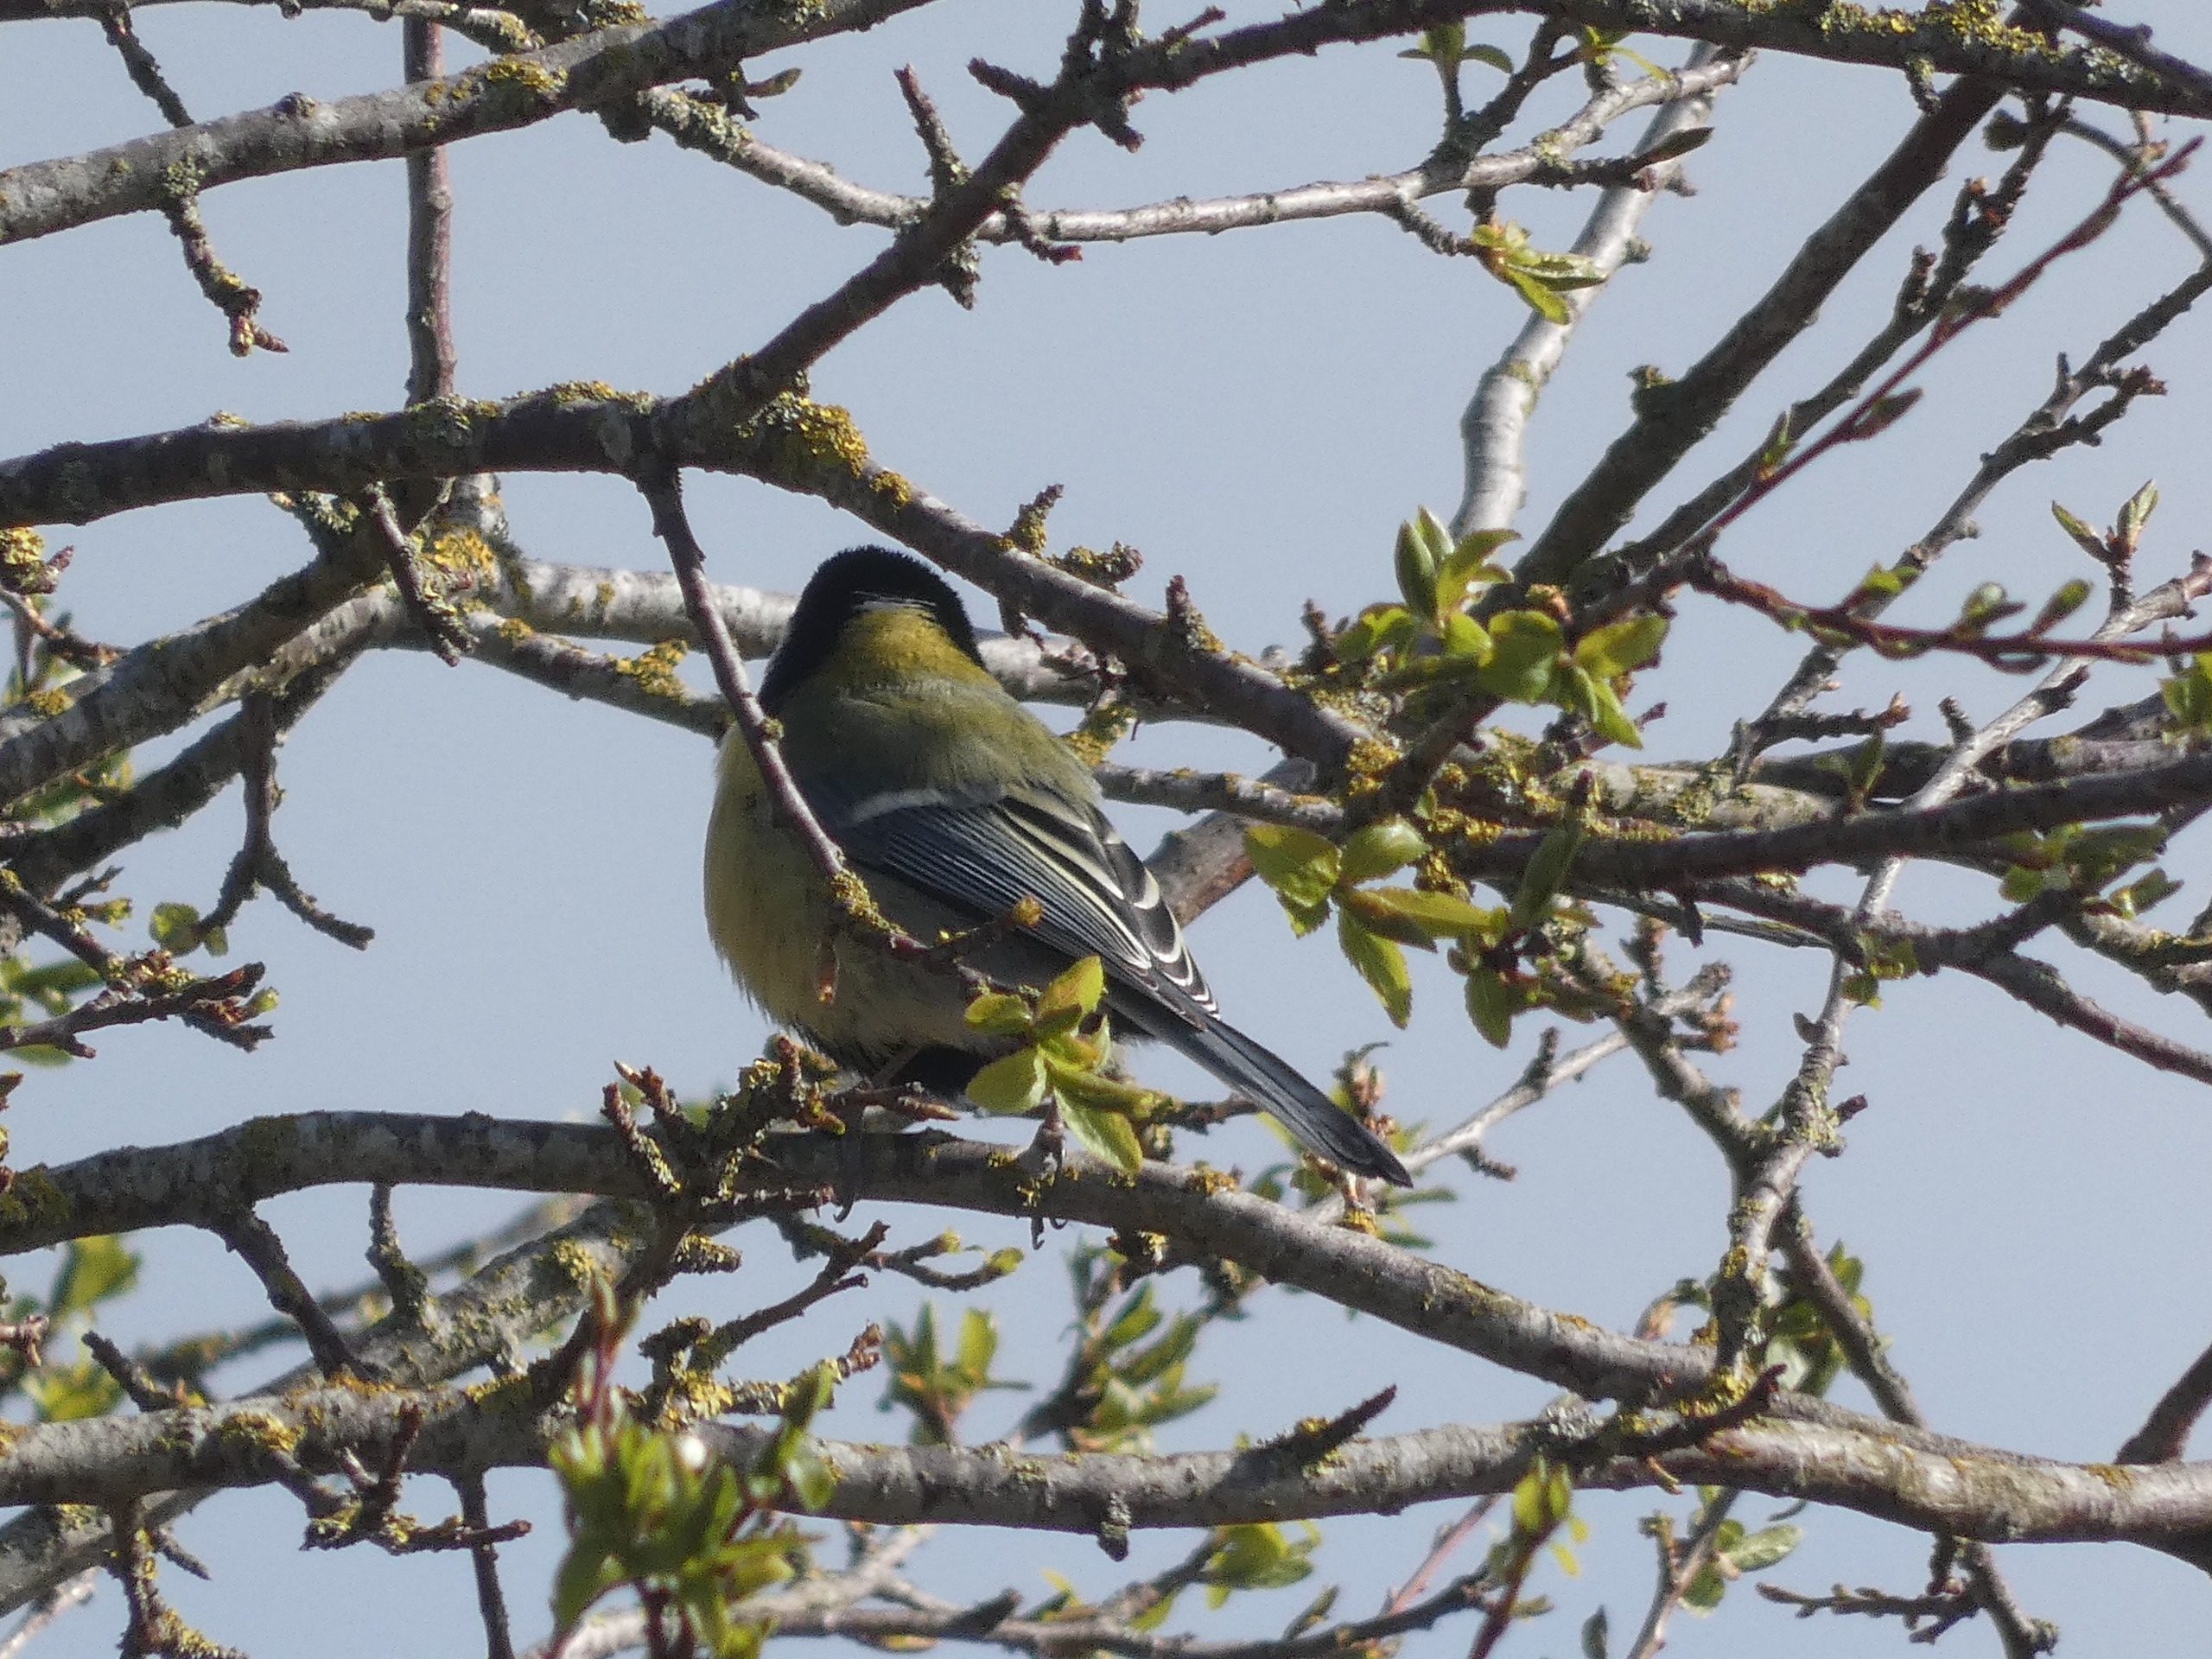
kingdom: Animalia
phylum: Chordata
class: Aves
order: Passeriformes
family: Paridae
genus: Parus
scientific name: Parus major
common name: Musvit
